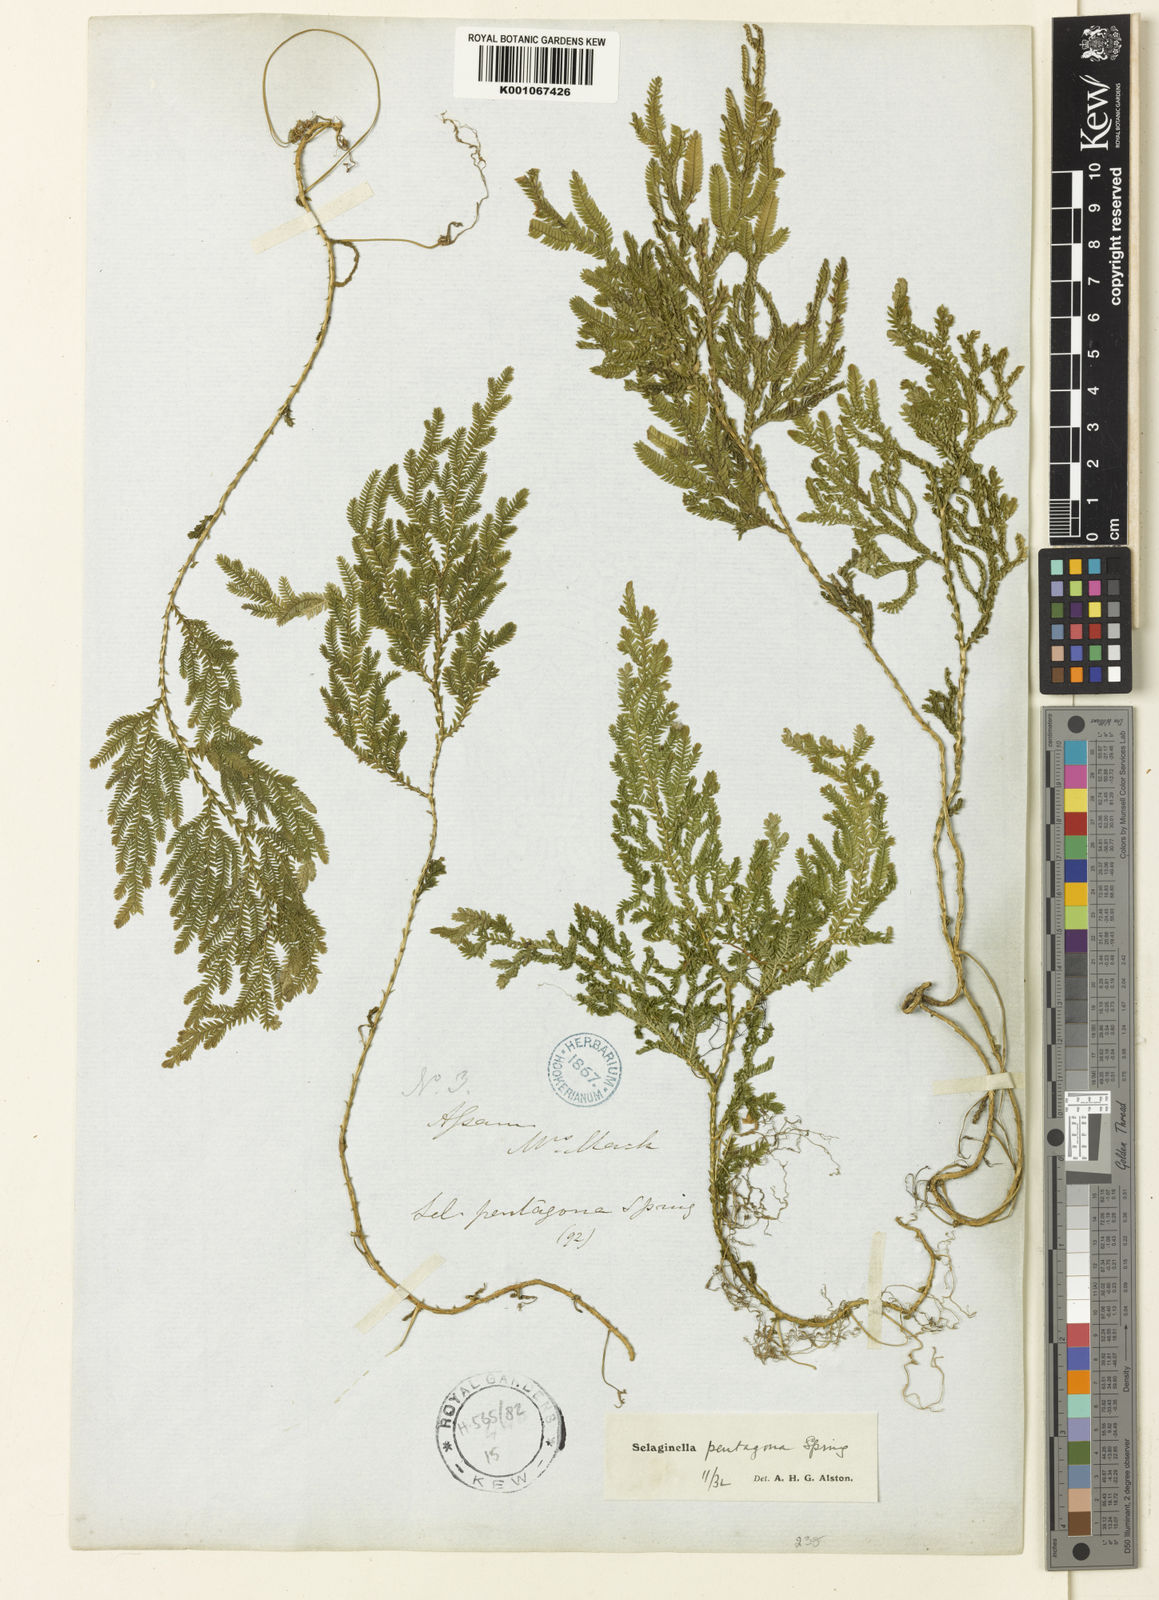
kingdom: Plantae
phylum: Tracheophyta
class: Lycopodiopsida
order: Selaginellales
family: Selaginellaceae
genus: Selaginella
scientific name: Selaginella pentagona
